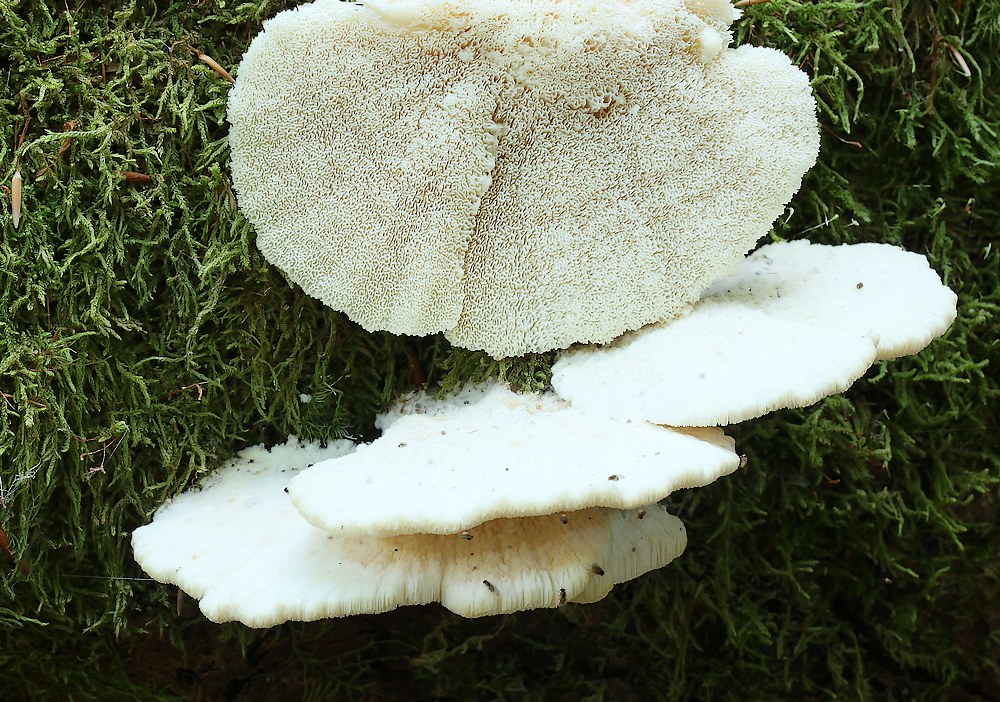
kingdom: Fungi
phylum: Basidiomycota
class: Agaricomycetes
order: Polyporales
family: Fomitopsidaceae
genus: Climacocystis
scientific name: Climacocystis borealis
